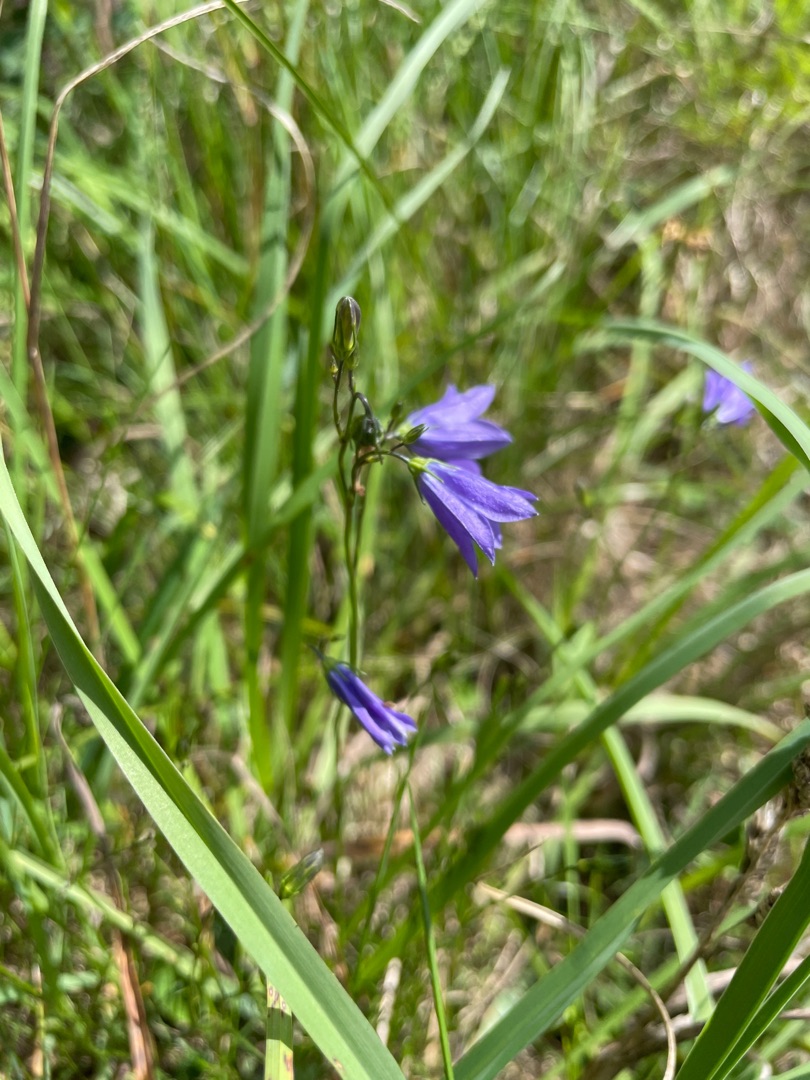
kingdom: Plantae
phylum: Tracheophyta
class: Magnoliopsida
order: Asterales
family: Campanulaceae
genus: Campanula
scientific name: Campanula rotundifolia
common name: Liden klokke
